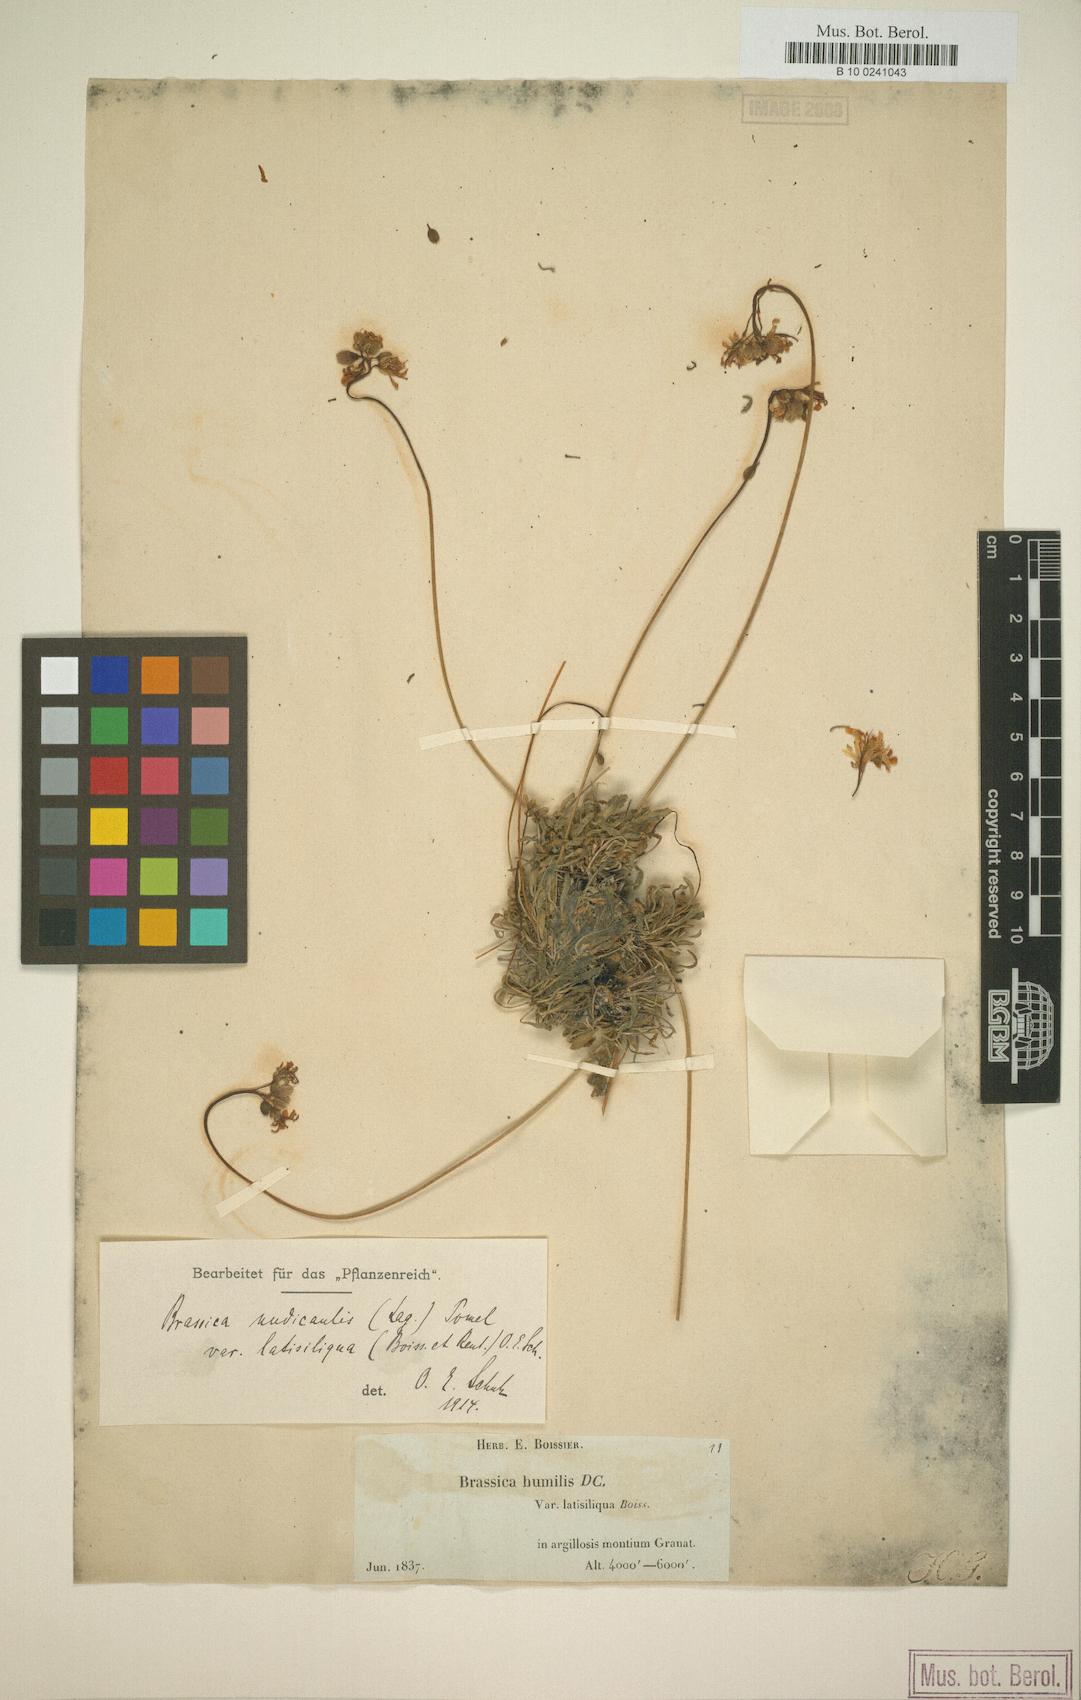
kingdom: Plantae
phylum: Tracheophyta
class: Magnoliopsida
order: Brassicales
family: Brassicaceae
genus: Brassica
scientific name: Brassica repanda
